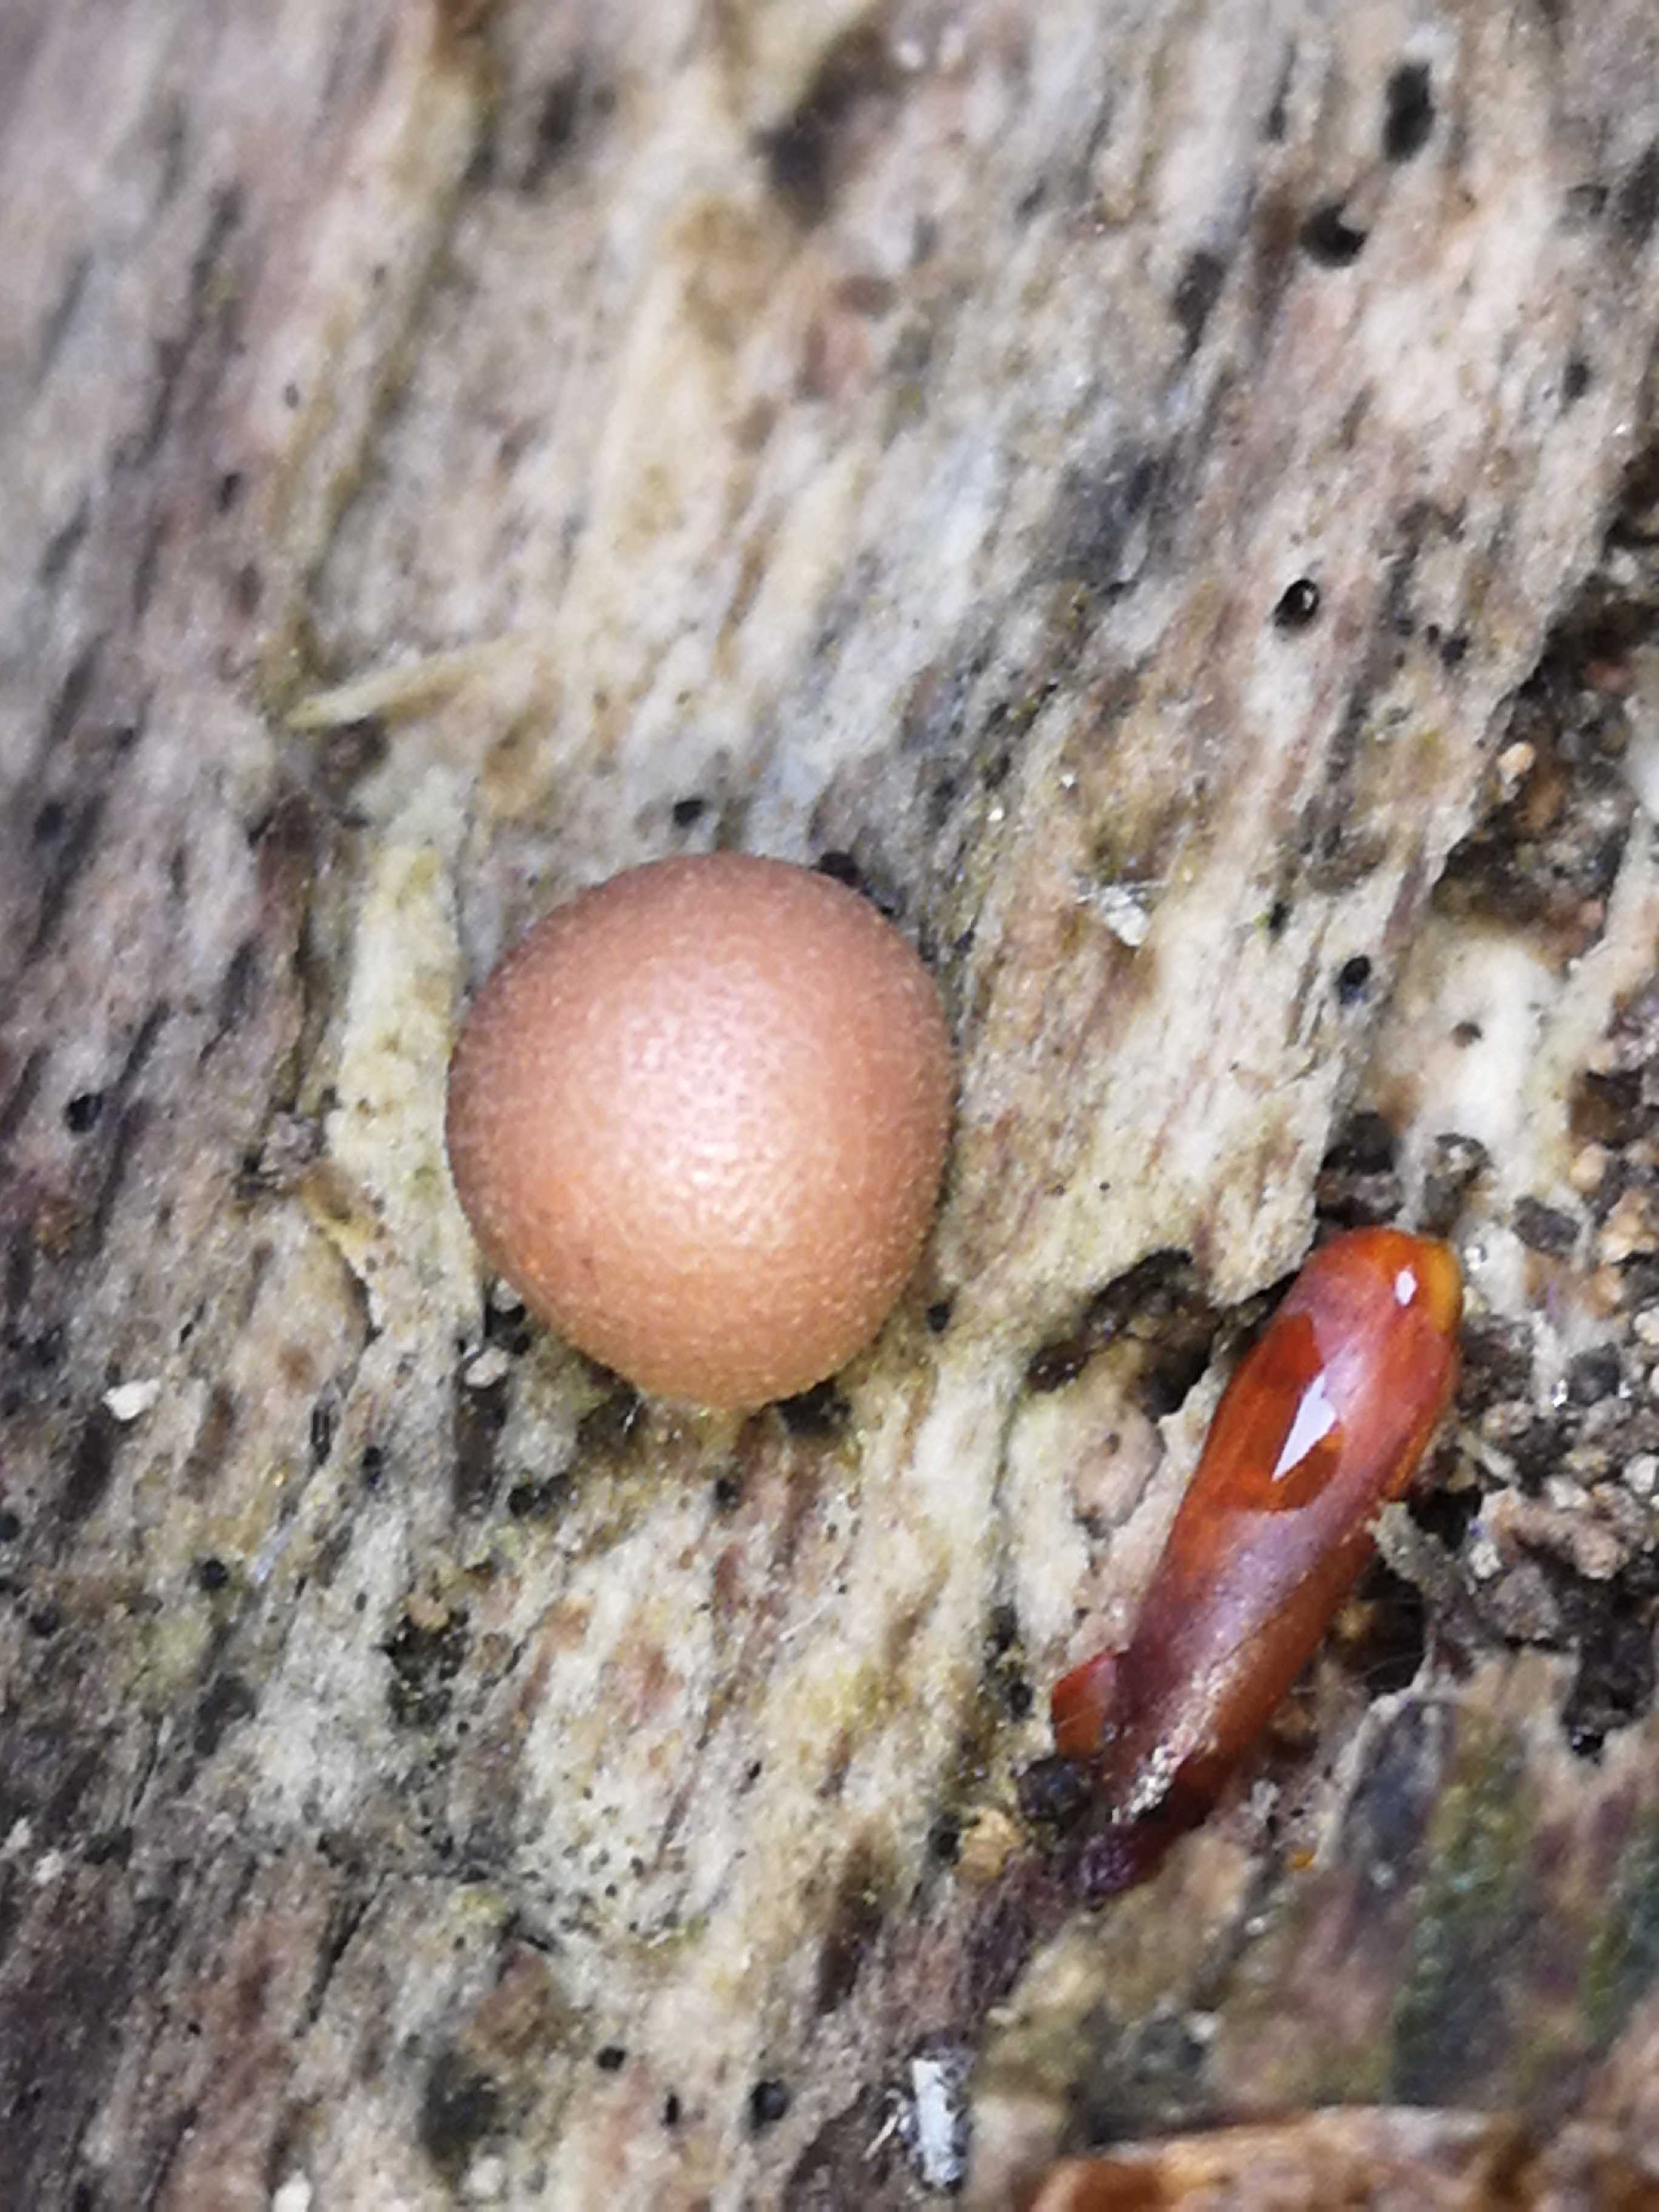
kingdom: Protozoa
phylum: Mycetozoa
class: Myxomycetes
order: Cribrariales
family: Tubiferaceae
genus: Lycogala
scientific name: Lycogala epidendrum
